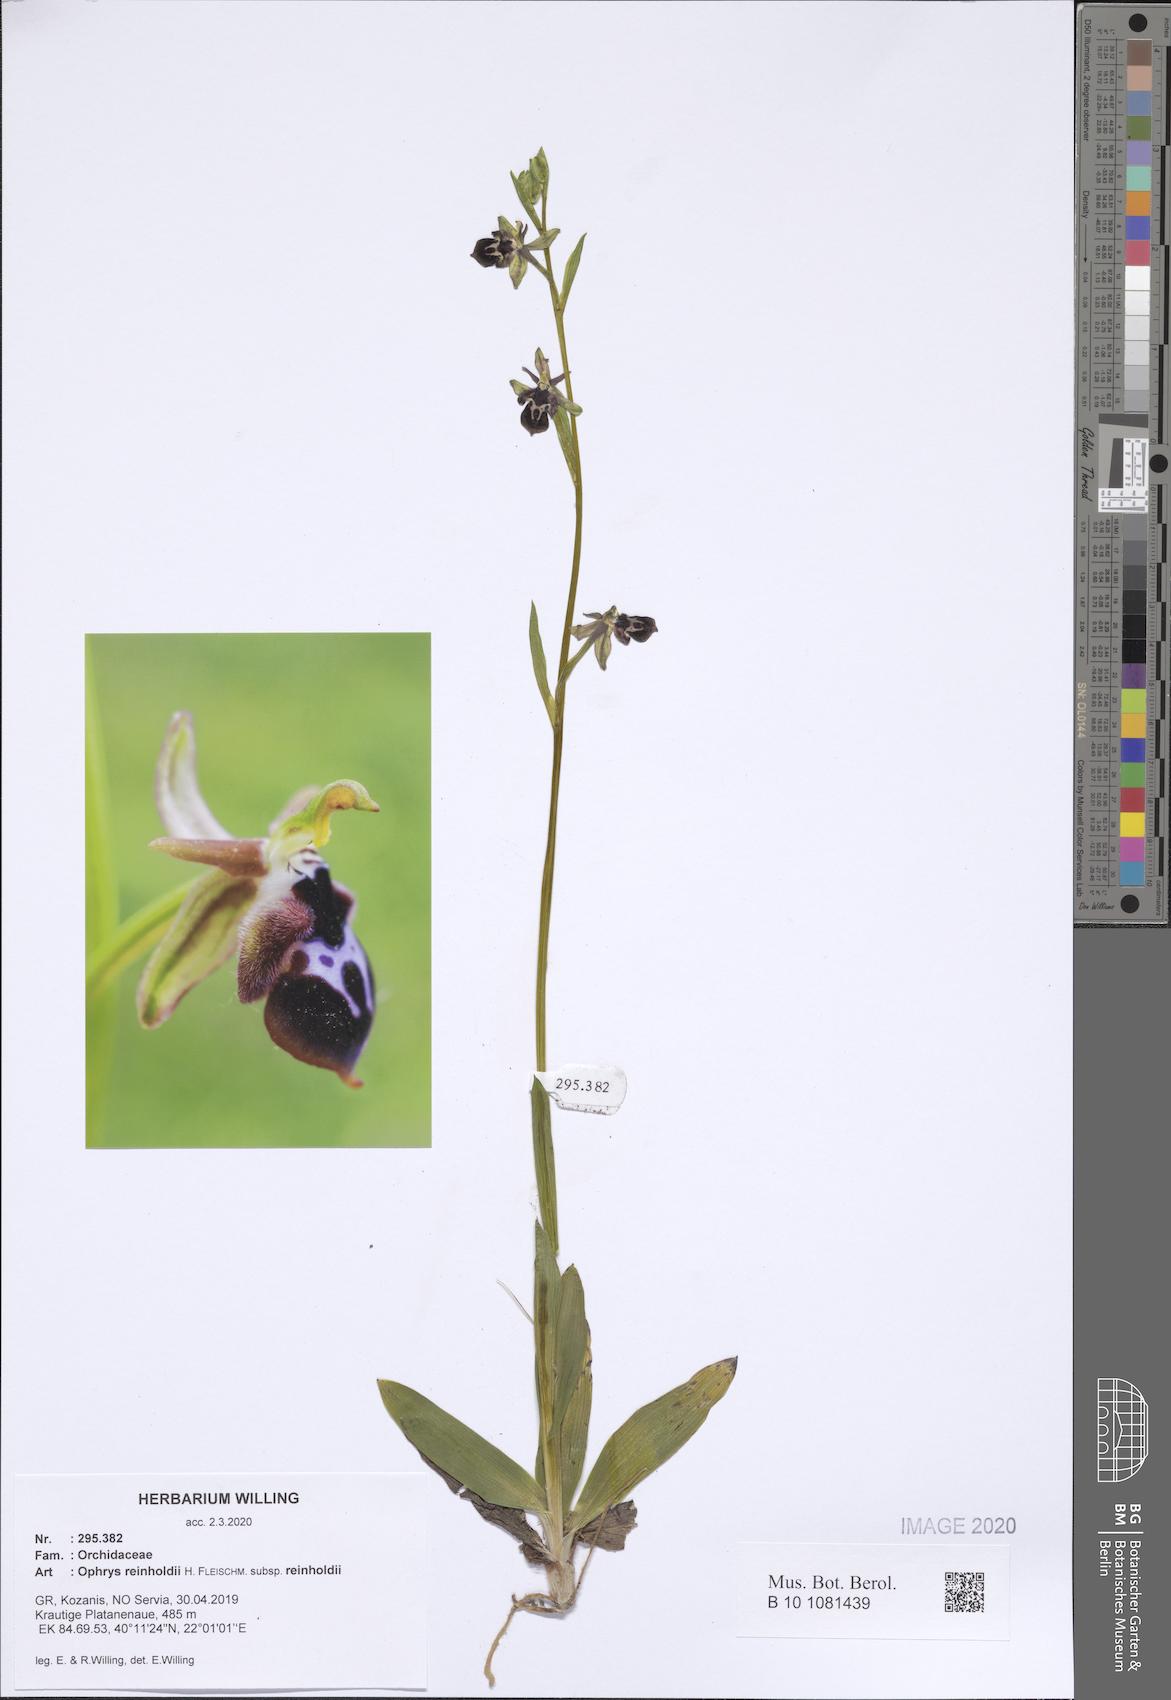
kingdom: Plantae
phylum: Tracheophyta
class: Liliopsida
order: Asparagales
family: Orchidaceae
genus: Ophrys
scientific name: Ophrys reinholdii
